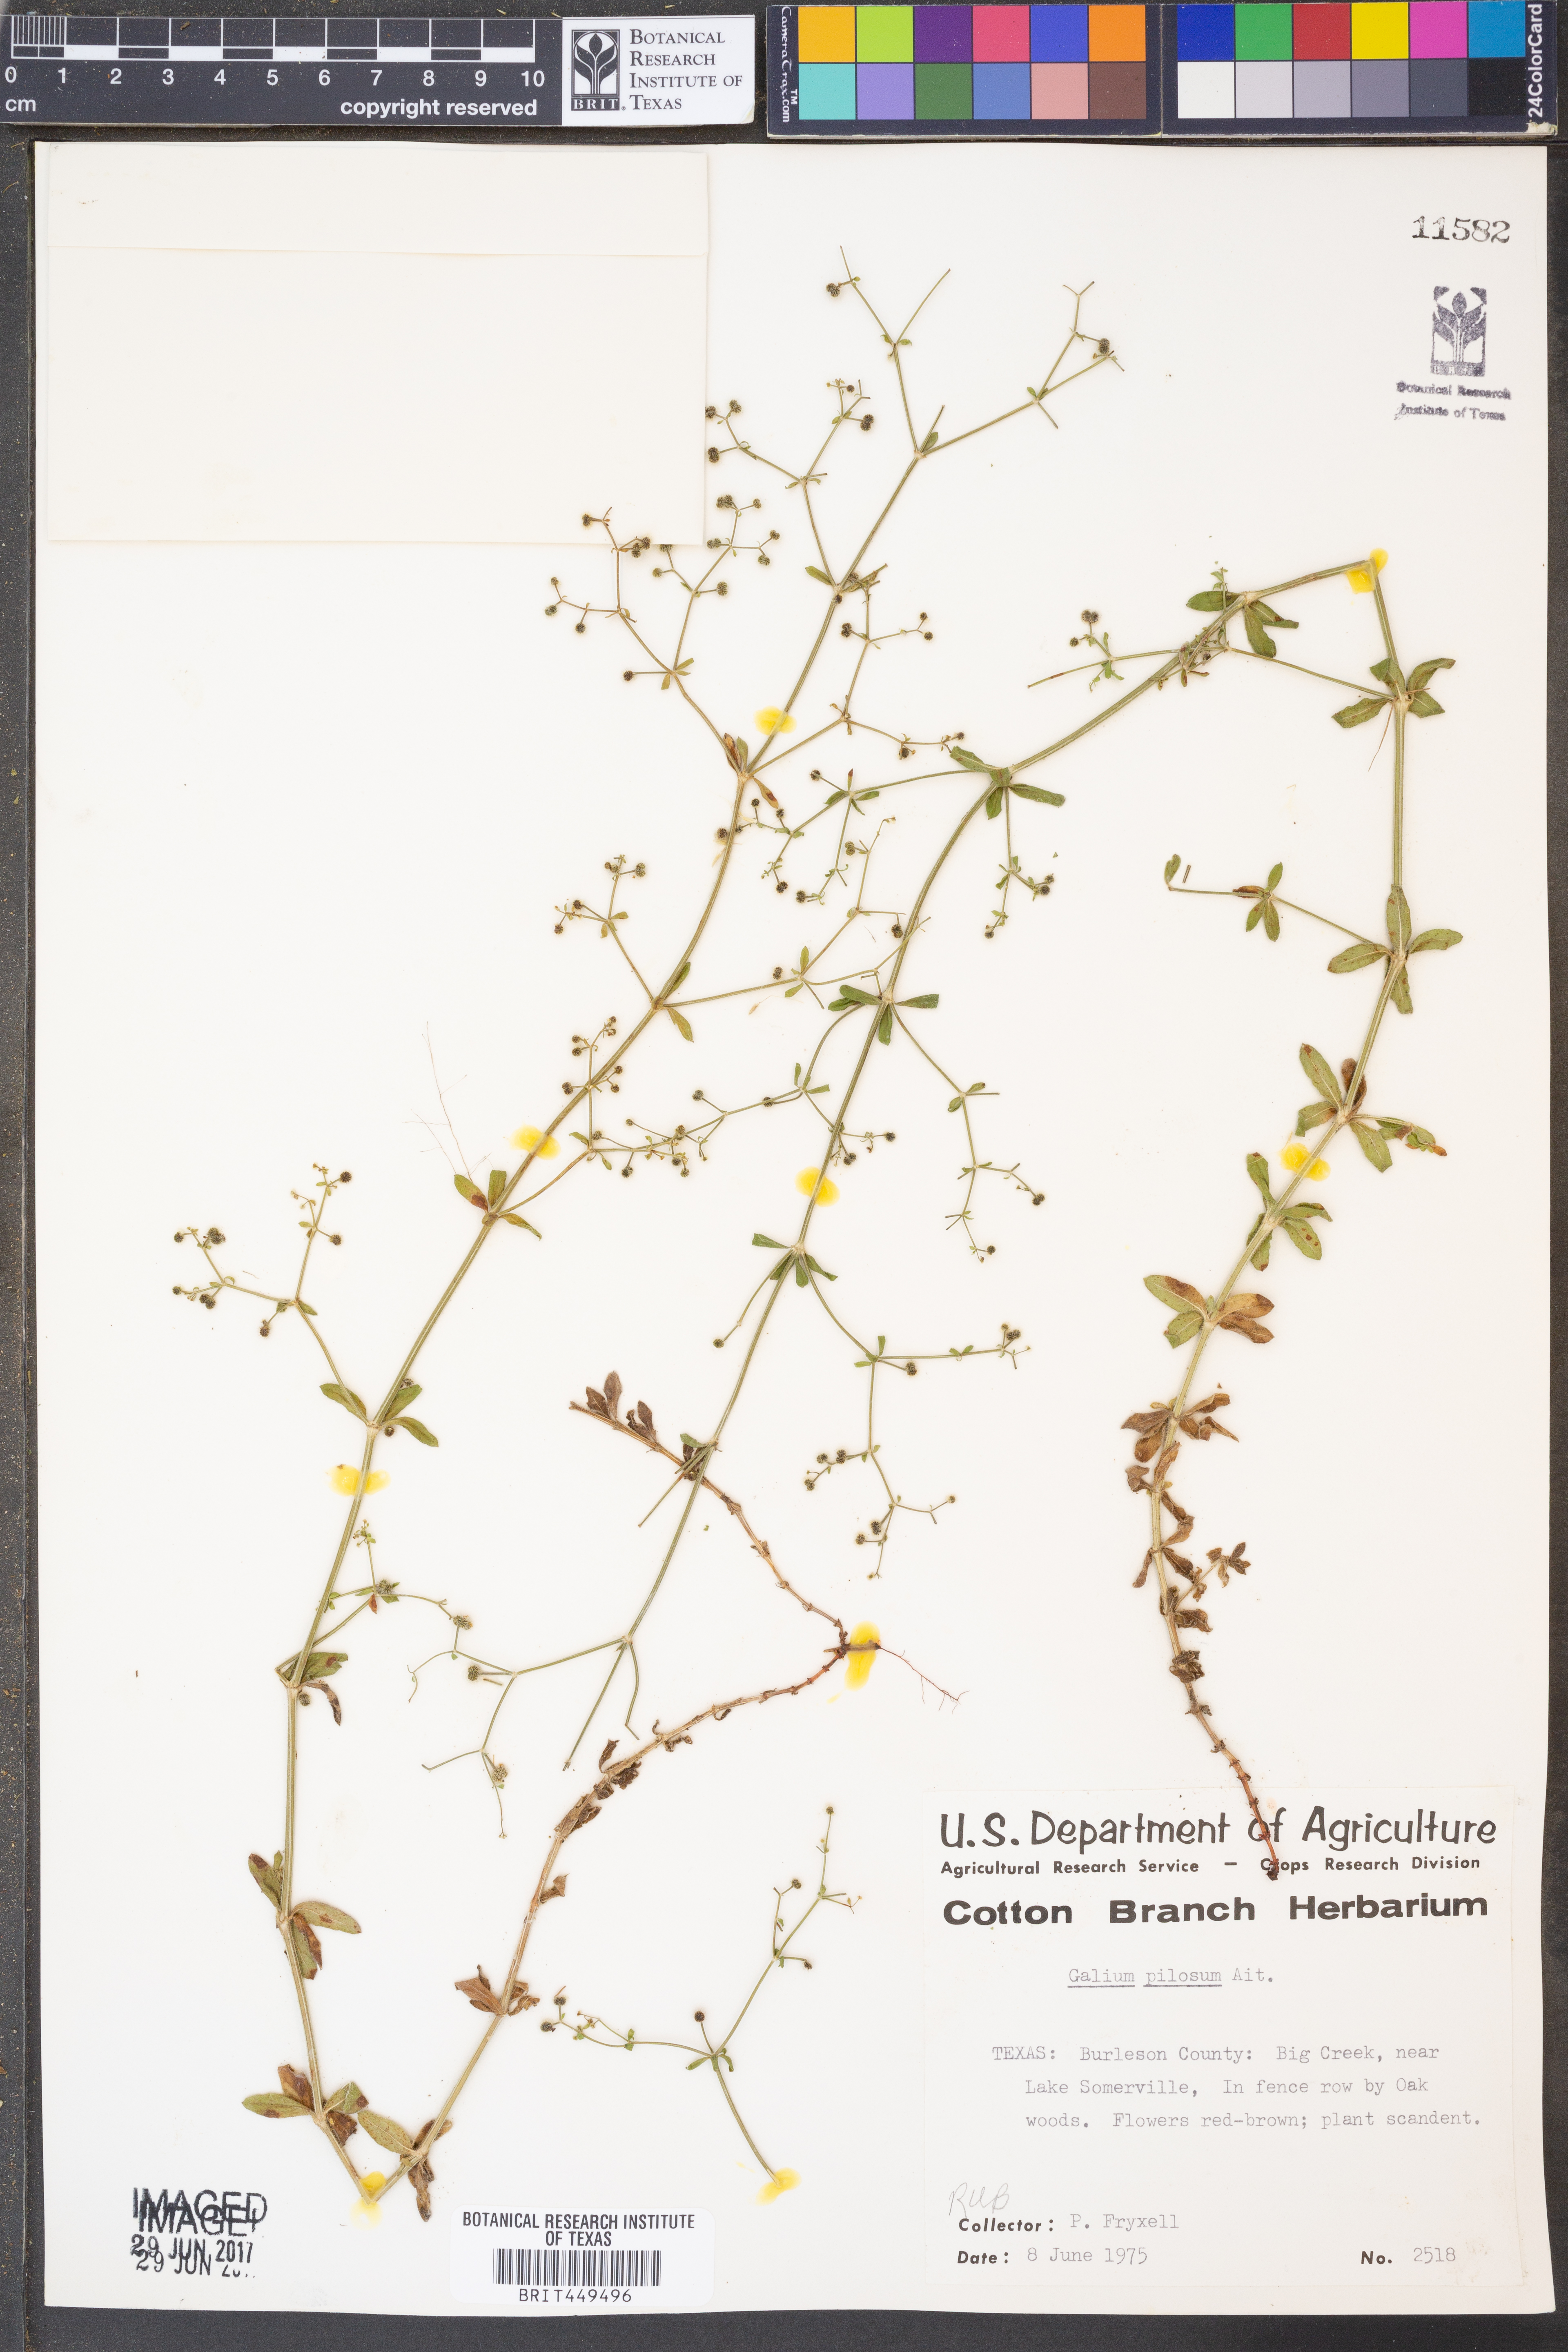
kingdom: Plantae
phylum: Tracheophyta
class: Magnoliopsida
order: Gentianales
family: Rubiaceae
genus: Galium
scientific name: Galium pilosum
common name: Hairy bedstraw
